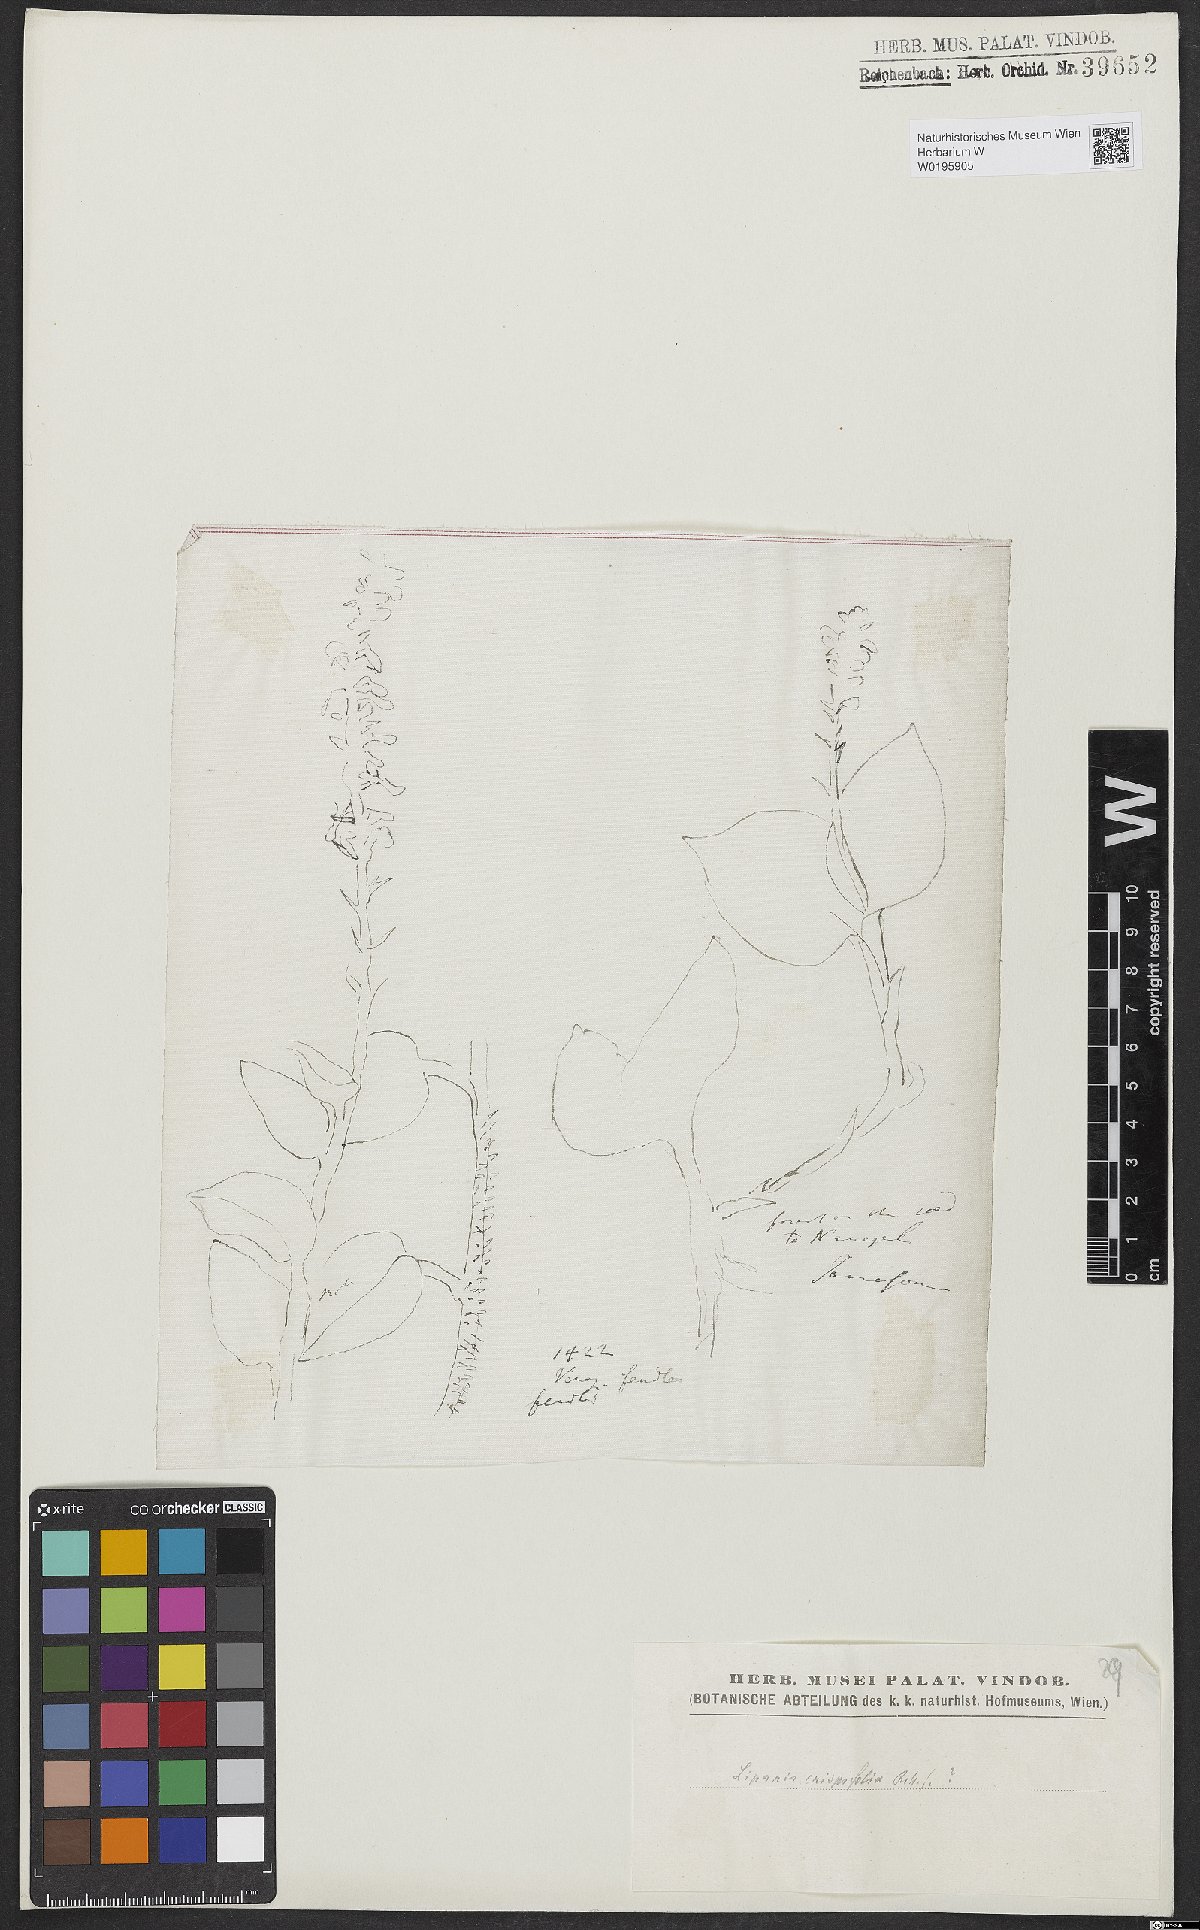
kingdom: Plantae
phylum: Tracheophyta
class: Liliopsida
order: Asparagales
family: Orchidaceae
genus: Liparis
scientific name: Liparis crispifolia
